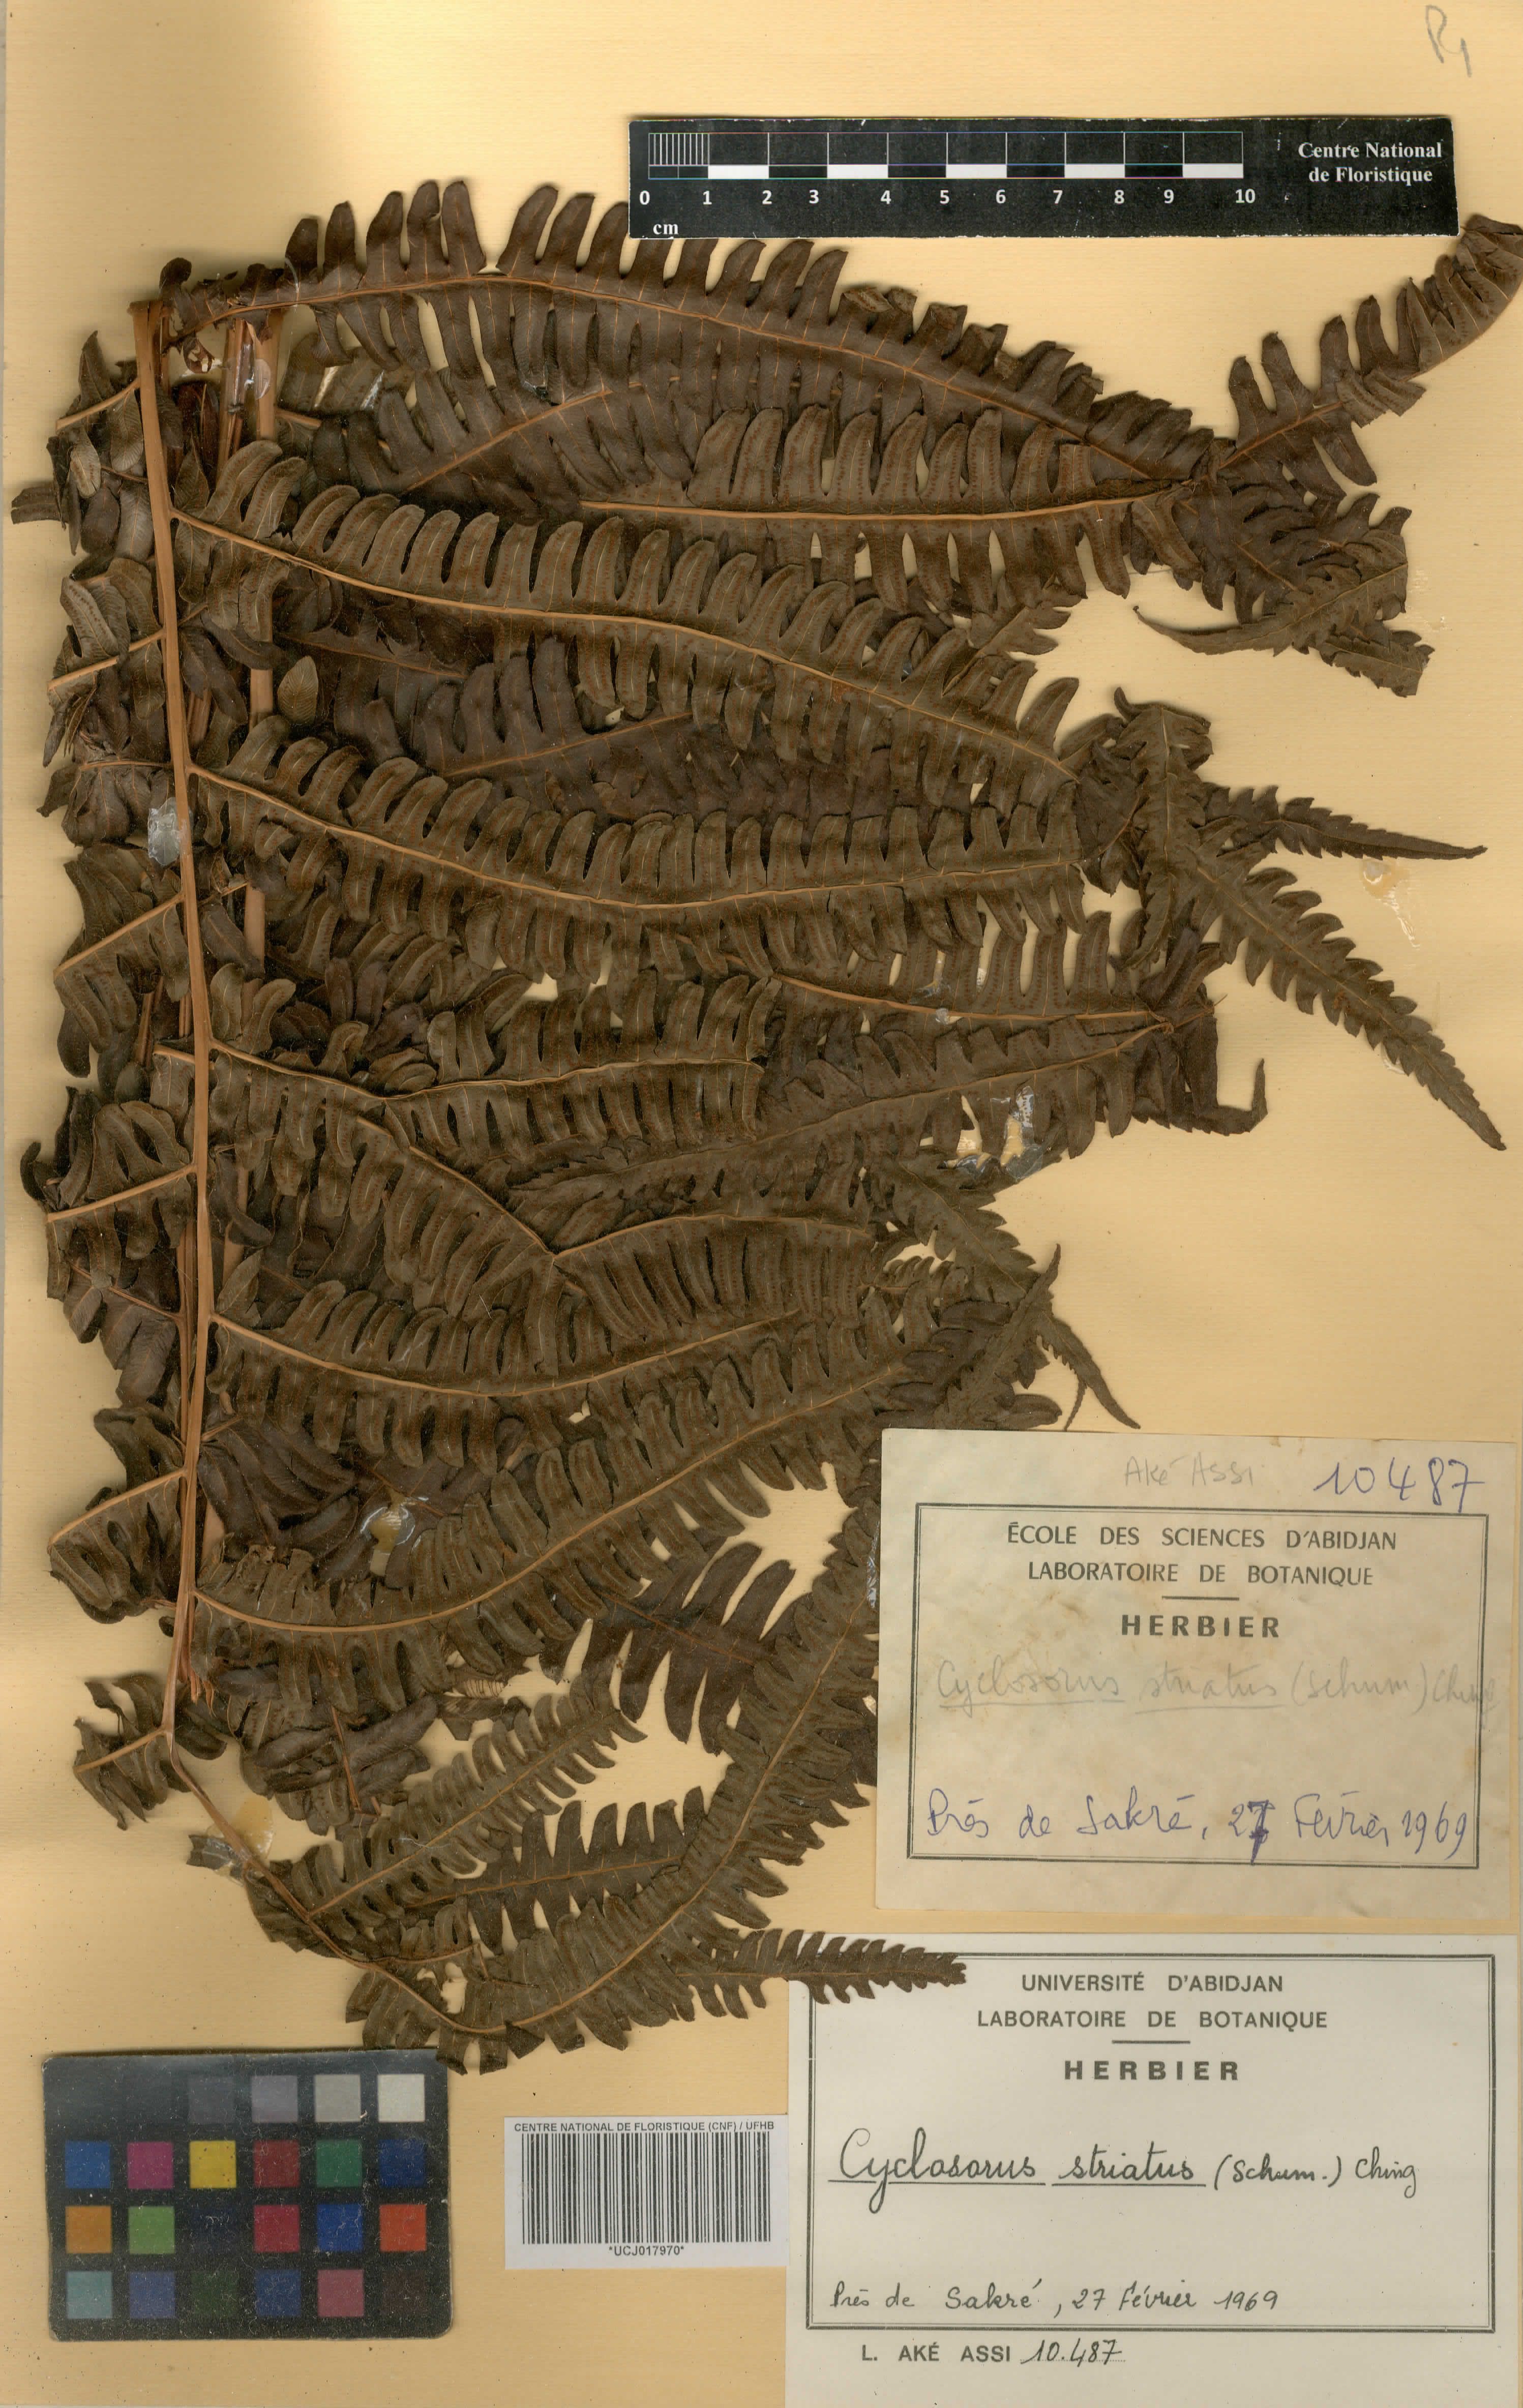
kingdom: Plantae
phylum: Tracheophyta
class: Polypodiopsida
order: Polypodiales
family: Thelypteridaceae
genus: Cyclosorus
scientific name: Cyclosorus striatus
